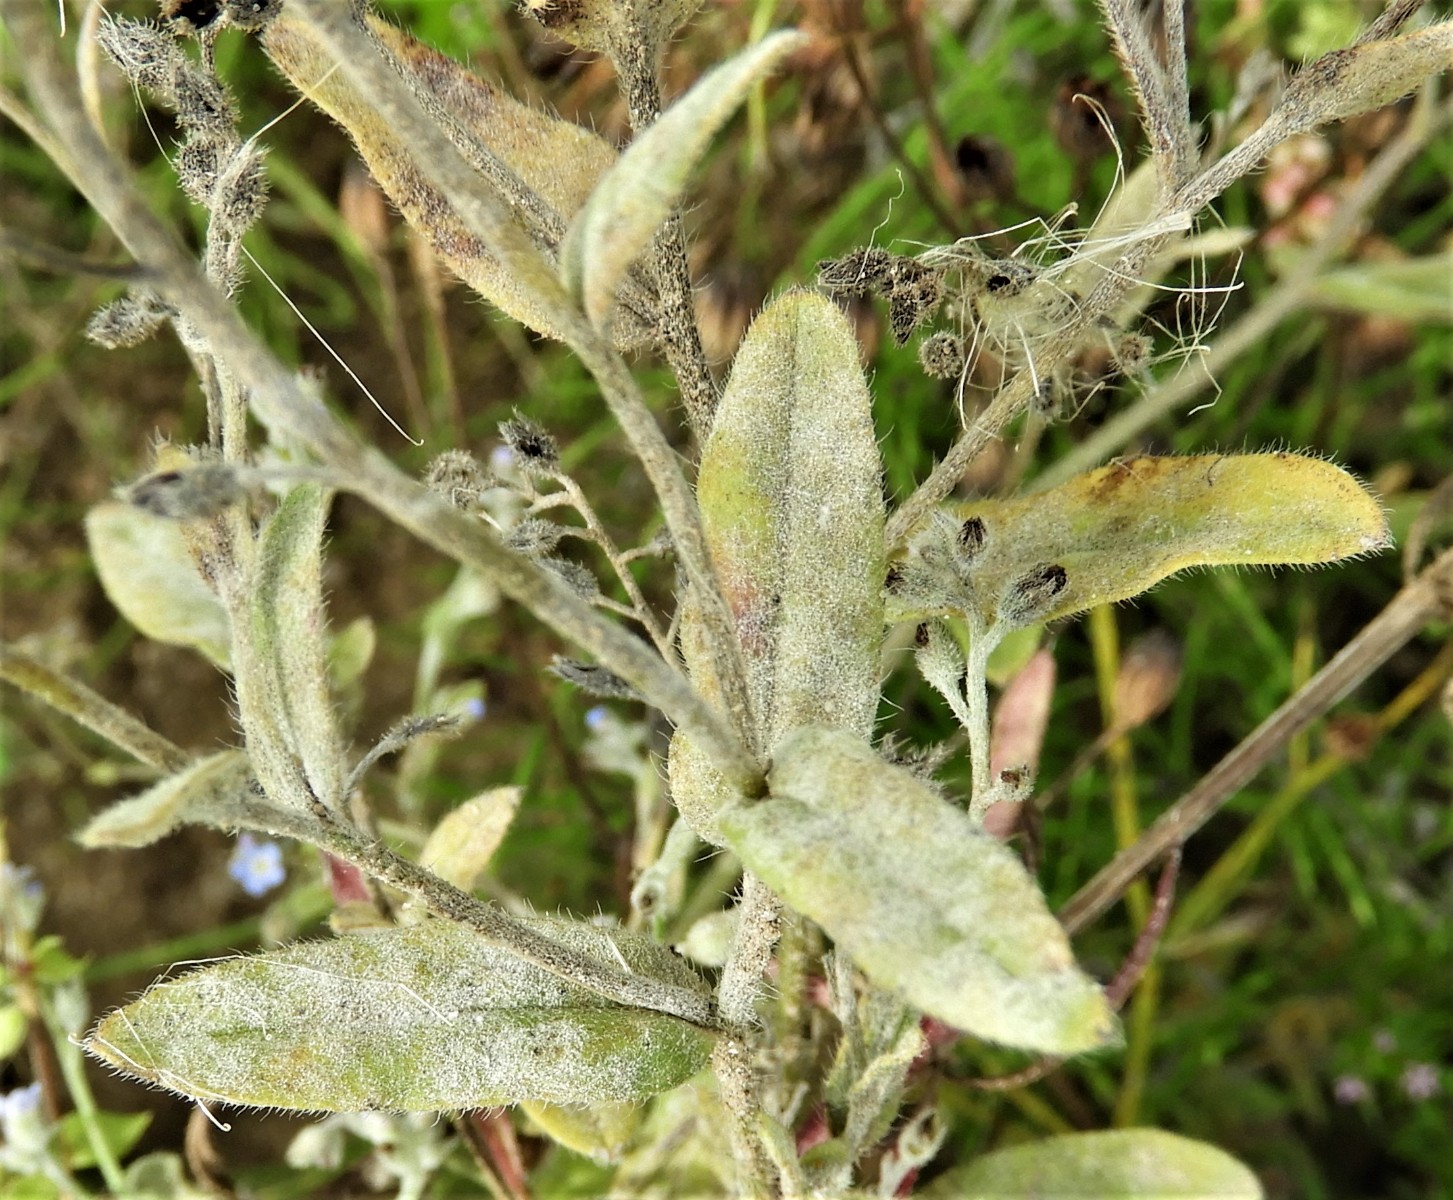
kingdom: Fungi
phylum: Ascomycota
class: Leotiomycetes
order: Helotiales
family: Erysiphaceae
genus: Golovinomyces
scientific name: Golovinomyces asperifolii
